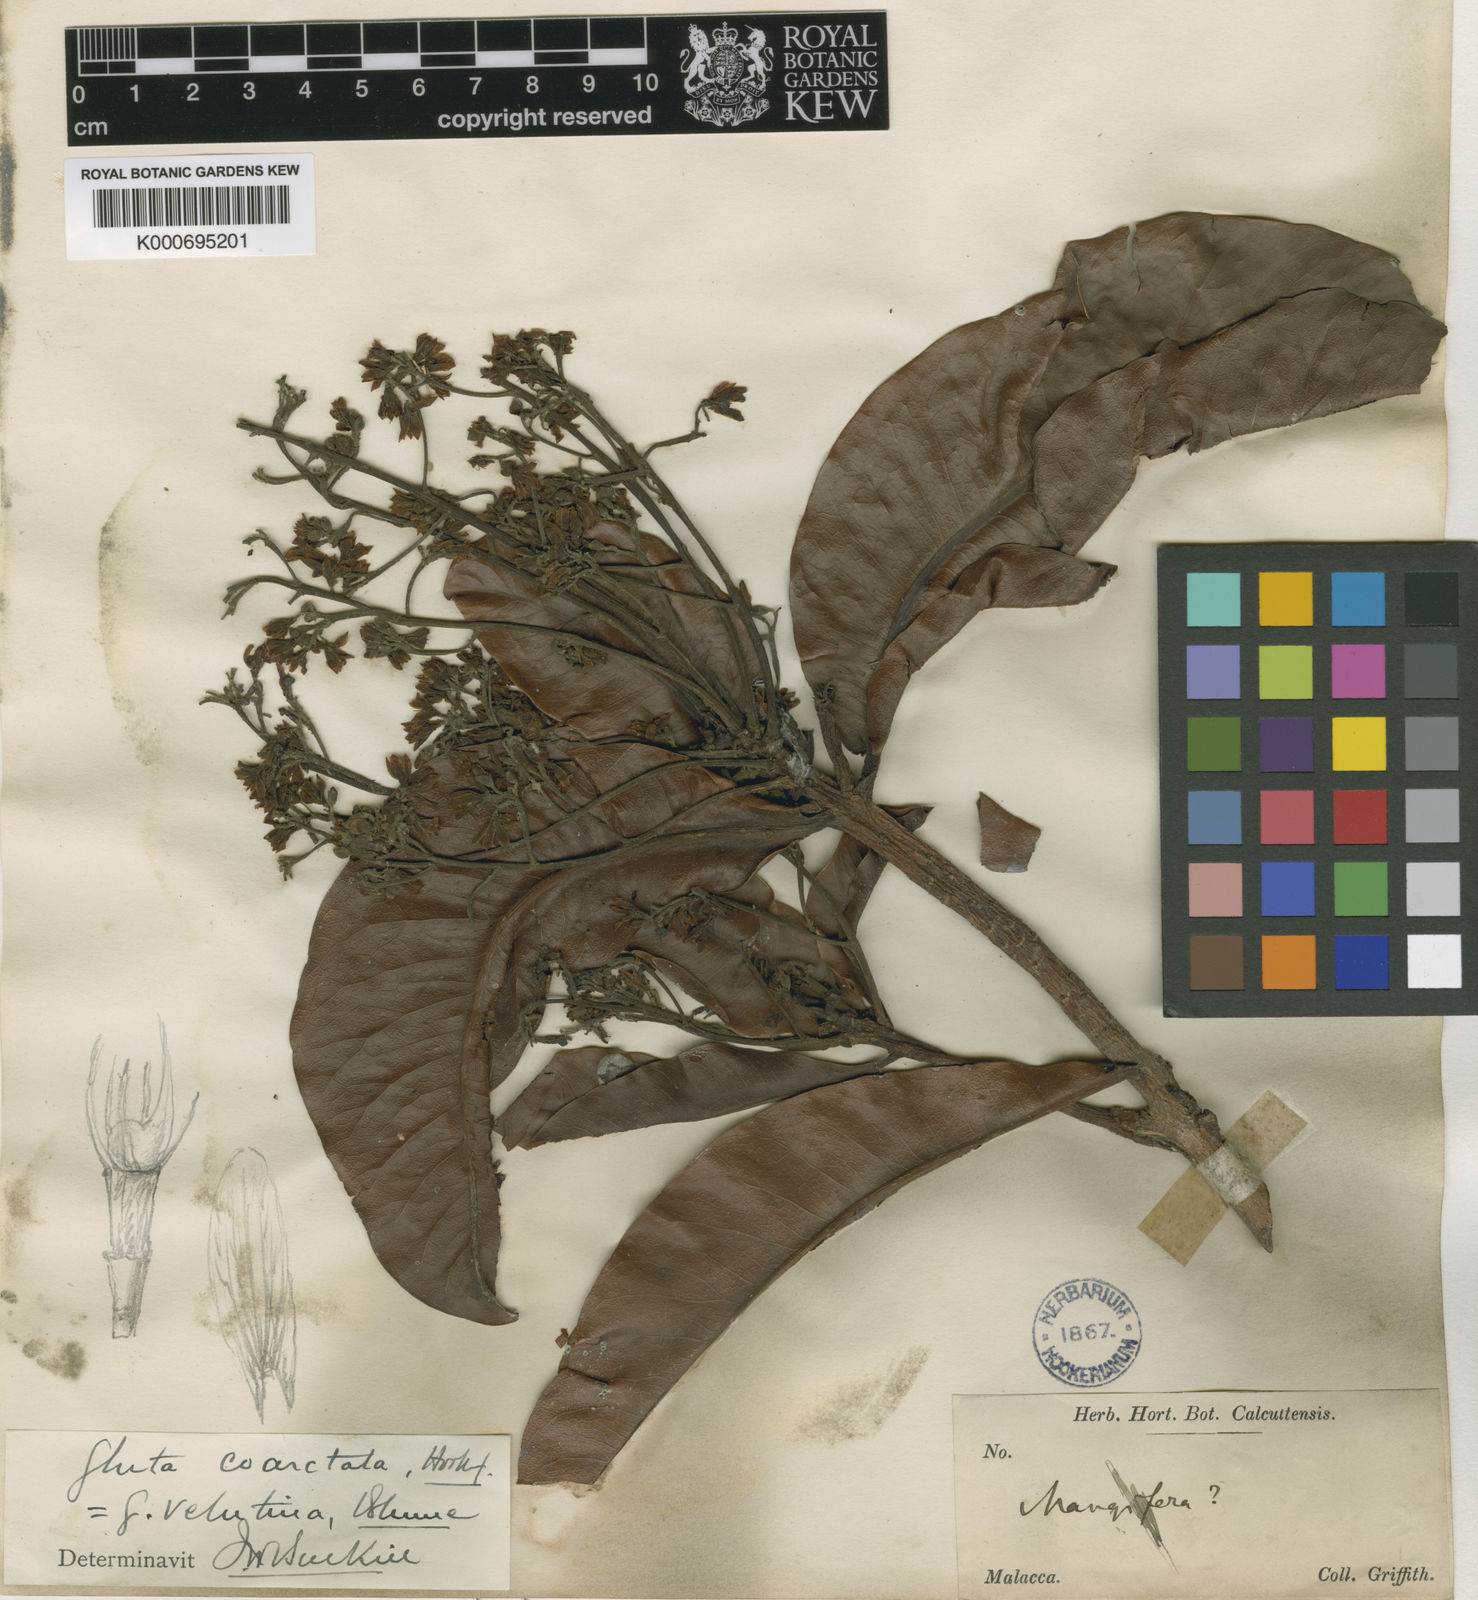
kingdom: Plantae
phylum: Tracheophyta
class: Magnoliopsida
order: Sapindales
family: Anacardiaceae
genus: Gluta
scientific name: Gluta velutina
